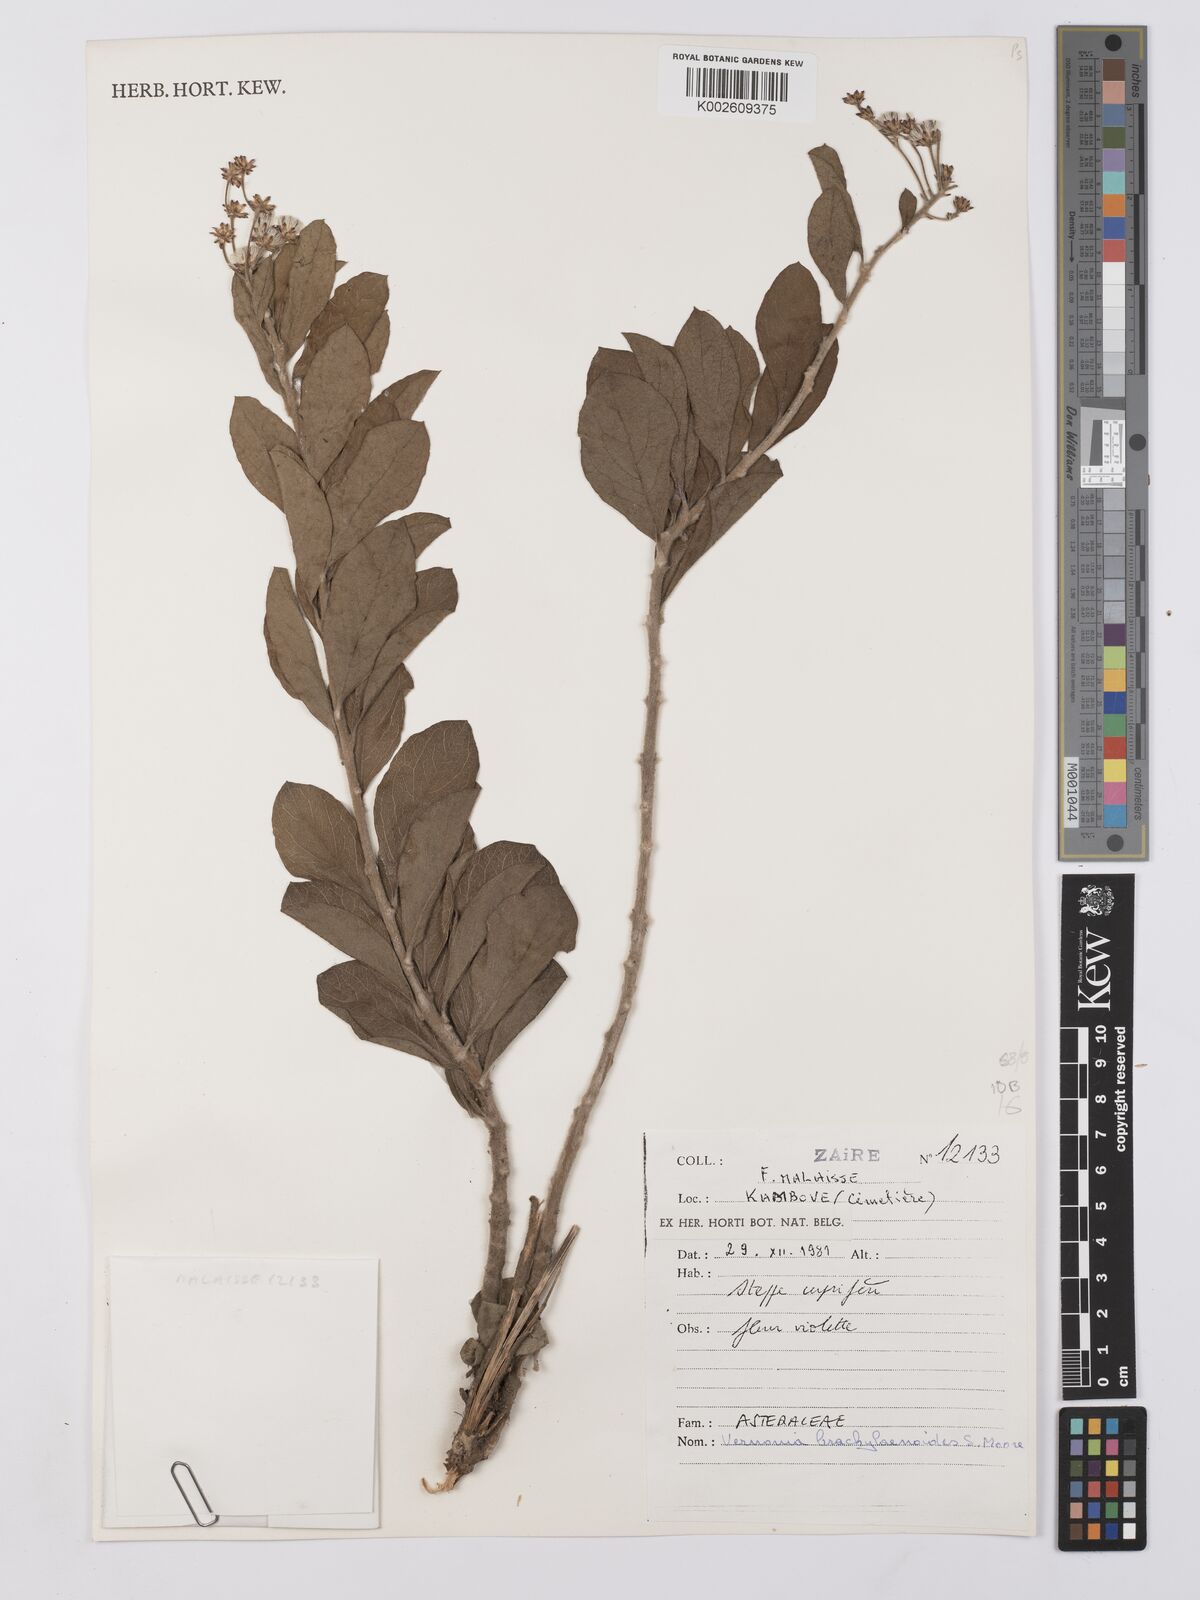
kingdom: Plantae
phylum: Tracheophyta
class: Magnoliopsida
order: Asterales
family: Asteraceae
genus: Vernonia
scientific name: Vernonia suprafastigiata
